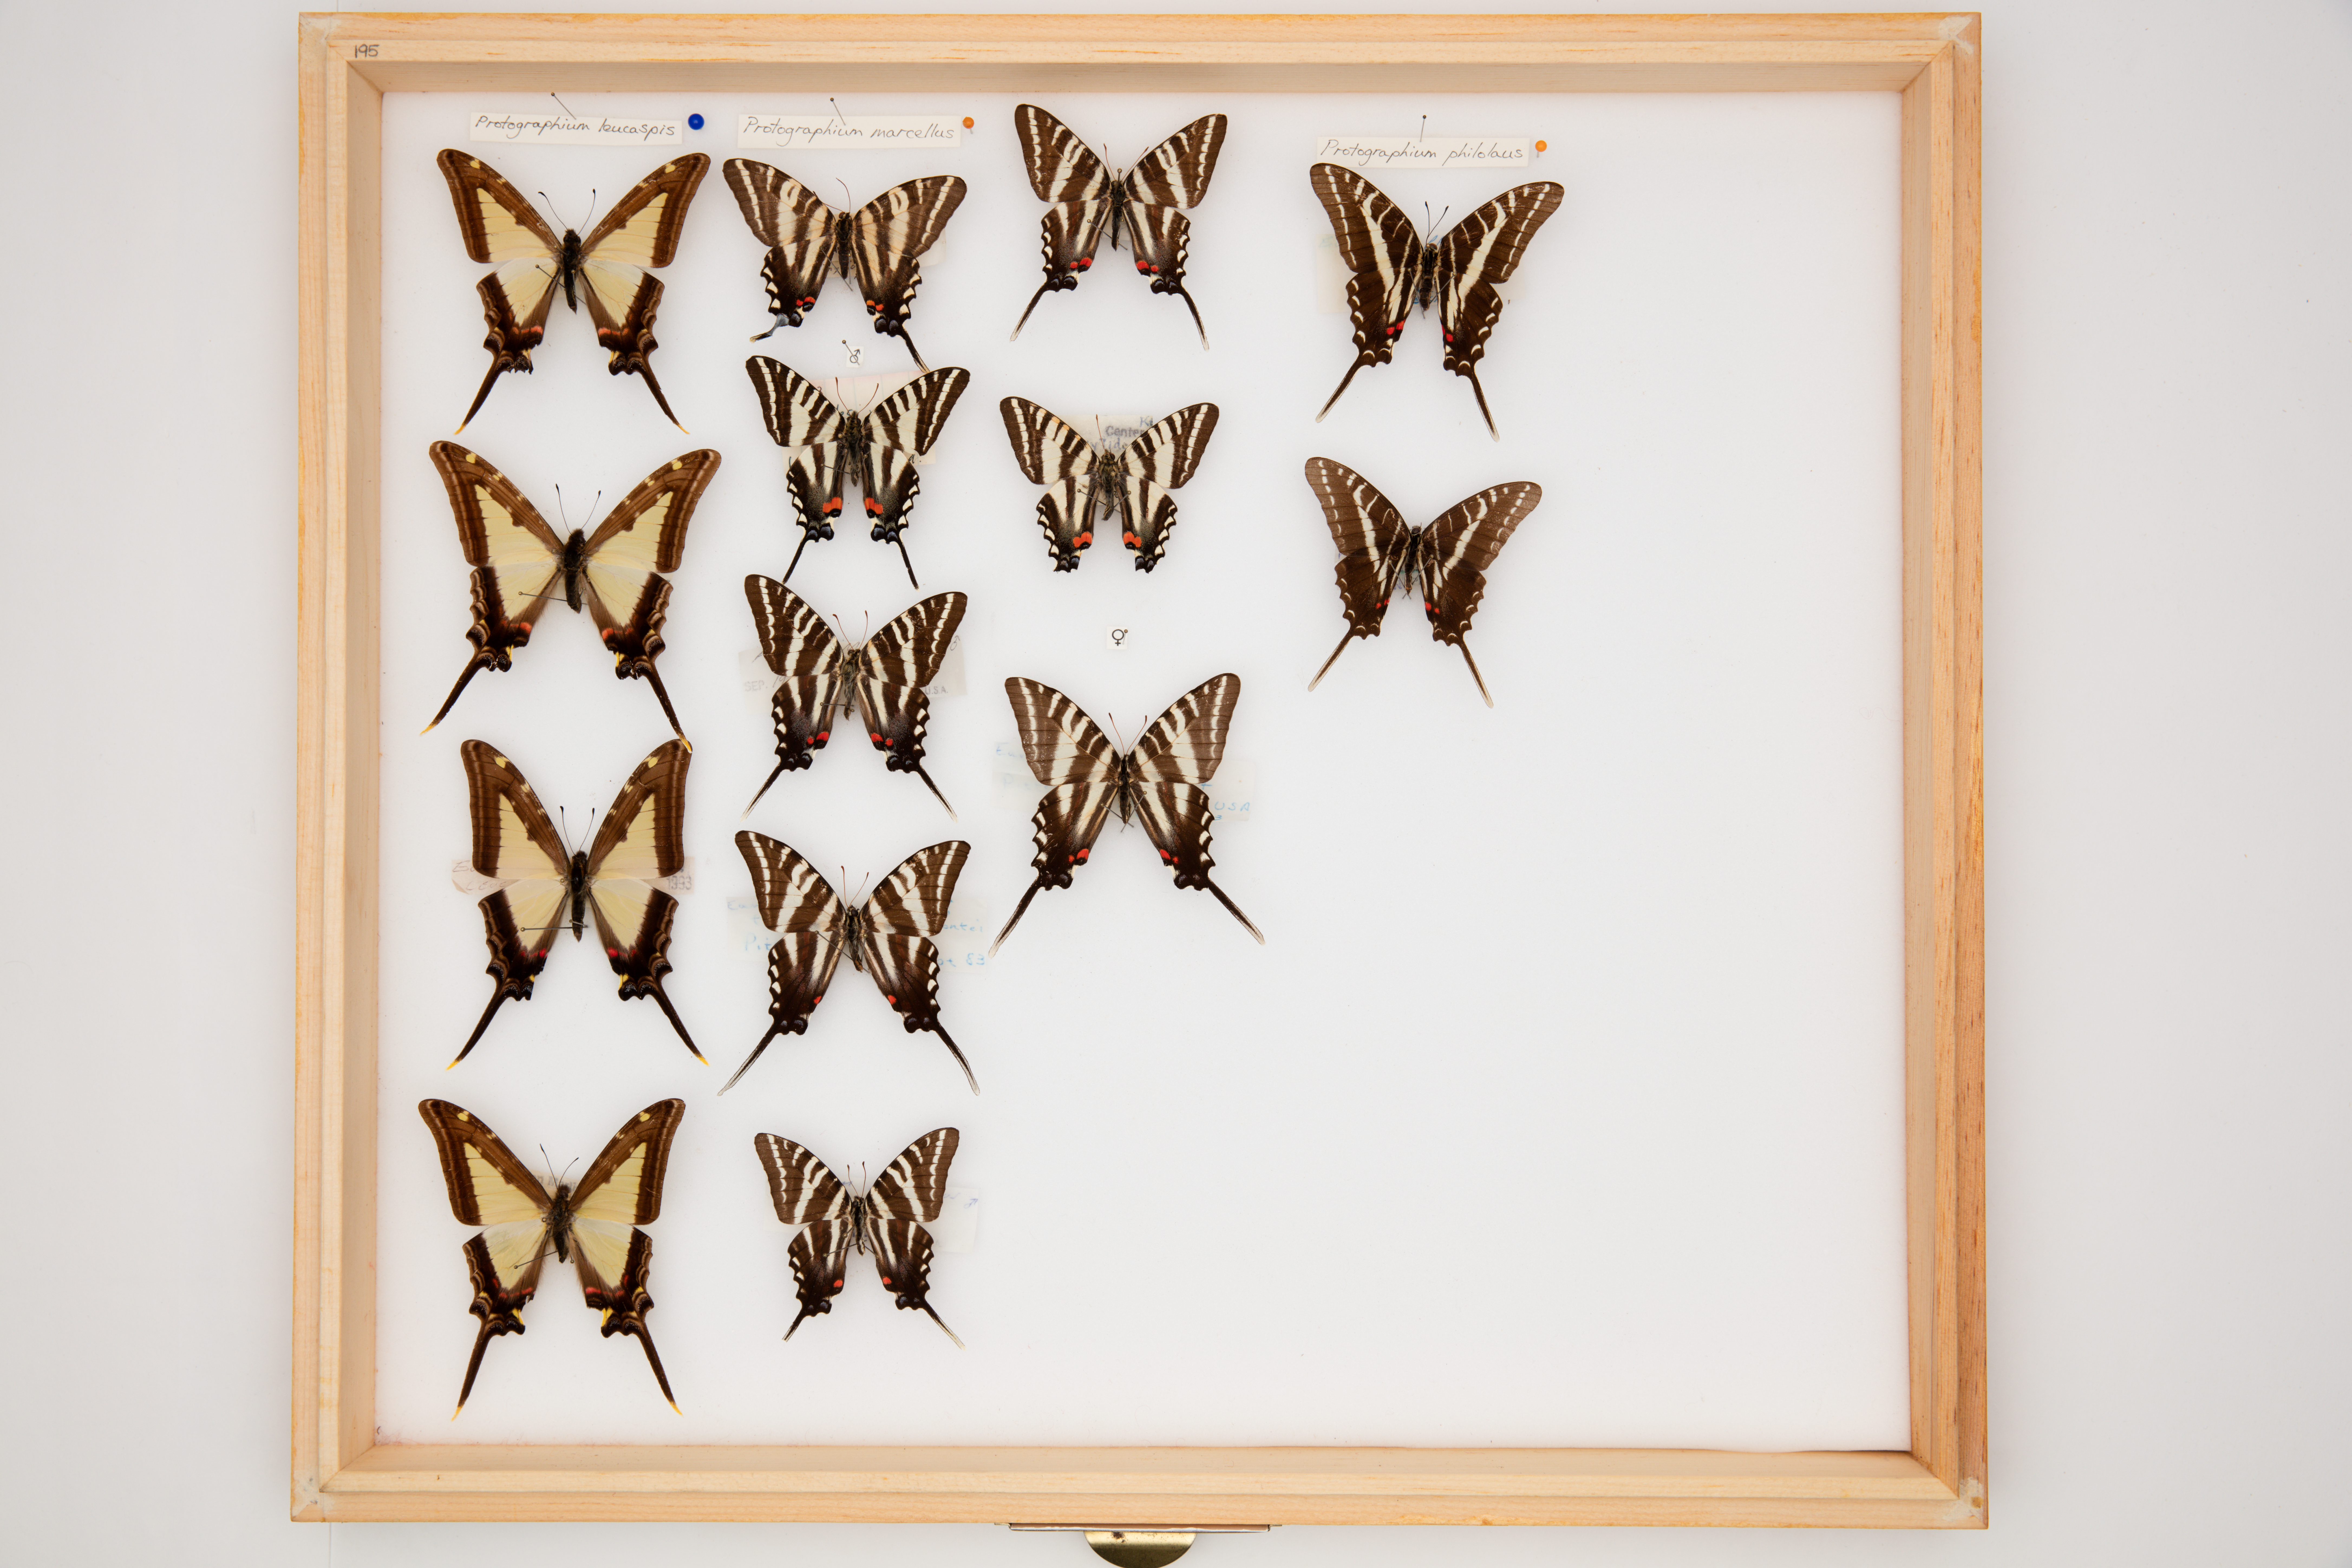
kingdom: Animalia
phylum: Arthropoda
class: Insecta
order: Lepidoptera
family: Papilionidae
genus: Protographium
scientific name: Protographium marcellus
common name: Zebra swallowtail
